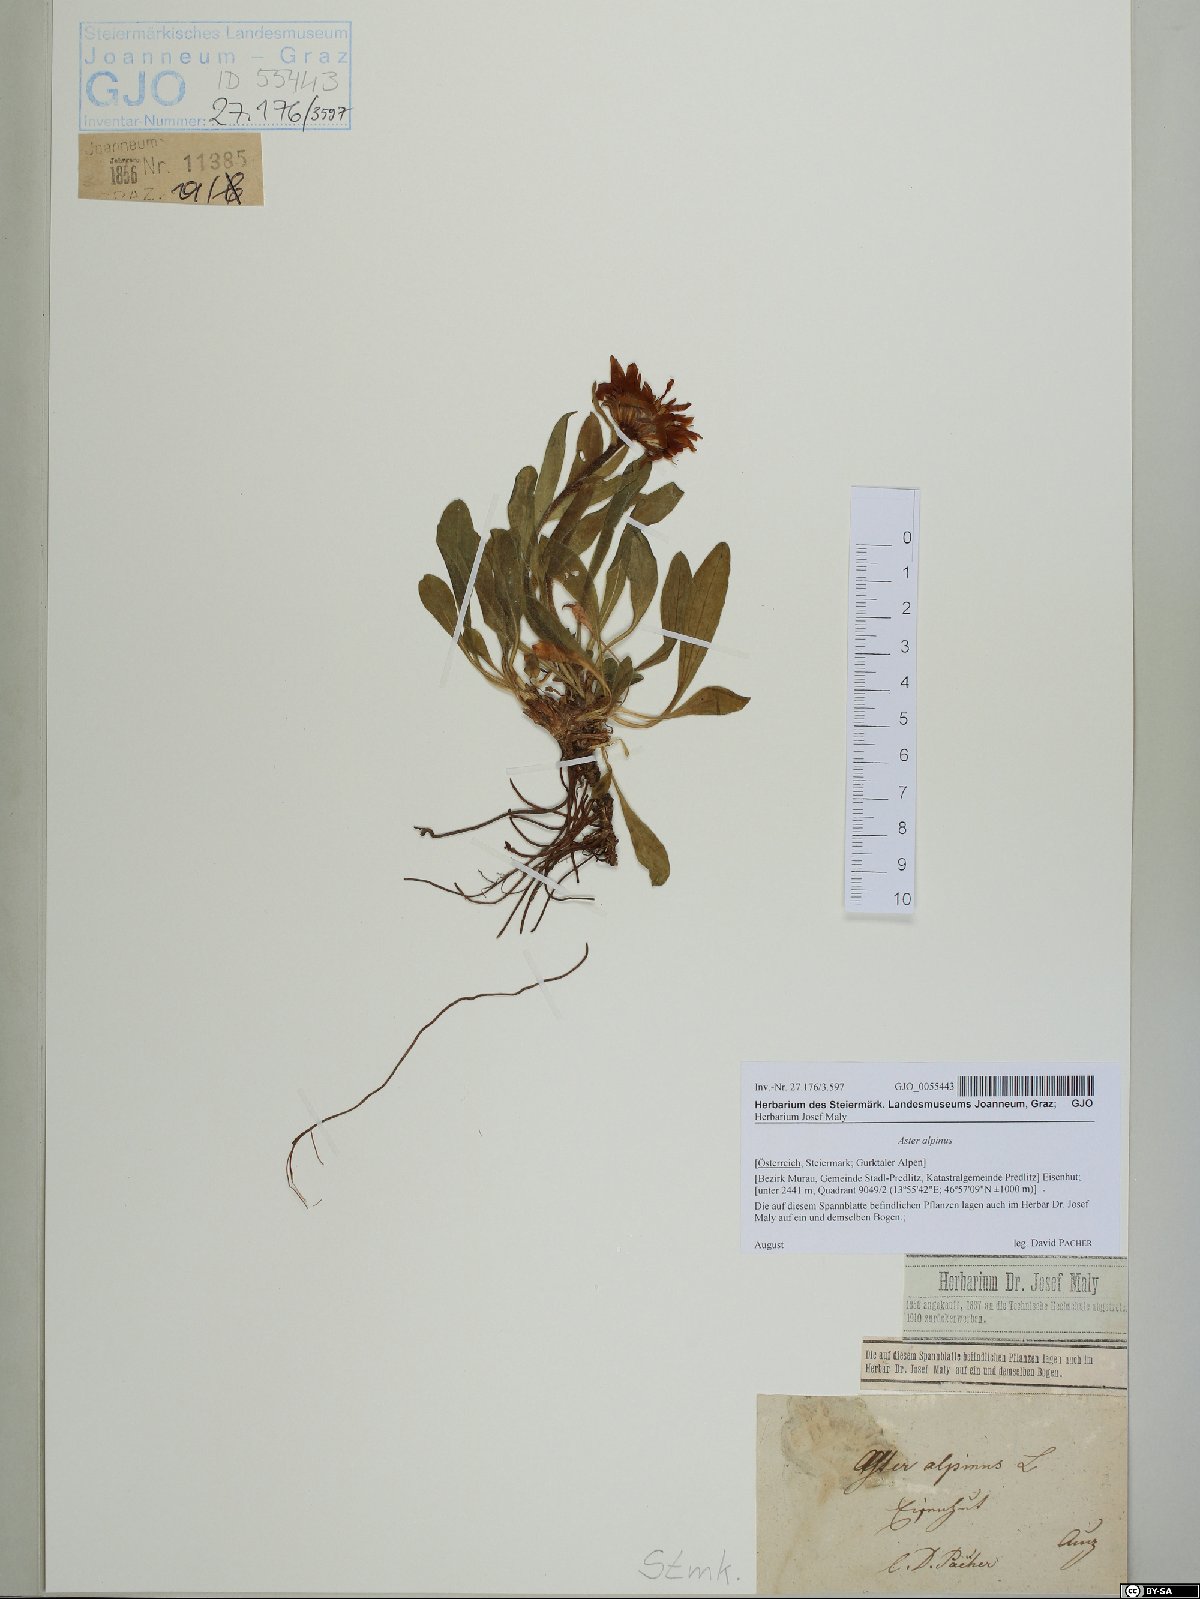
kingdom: Plantae
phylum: Tracheophyta
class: Magnoliopsida
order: Asterales
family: Asteraceae
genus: Aster
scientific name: Aster alpinus
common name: Alpine aster
